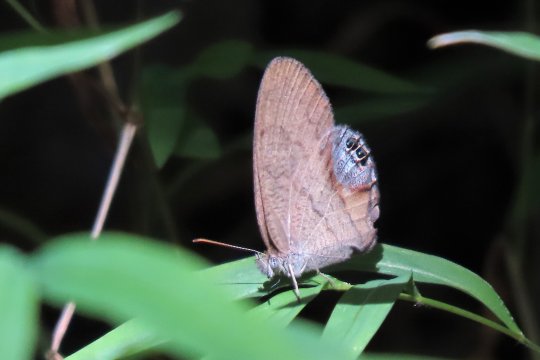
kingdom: Animalia
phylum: Arthropoda
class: Insecta
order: Lepidoptera
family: Nymphalidae
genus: Euptychia
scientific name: Euptychia cornelius
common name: Gemmed Satyr
